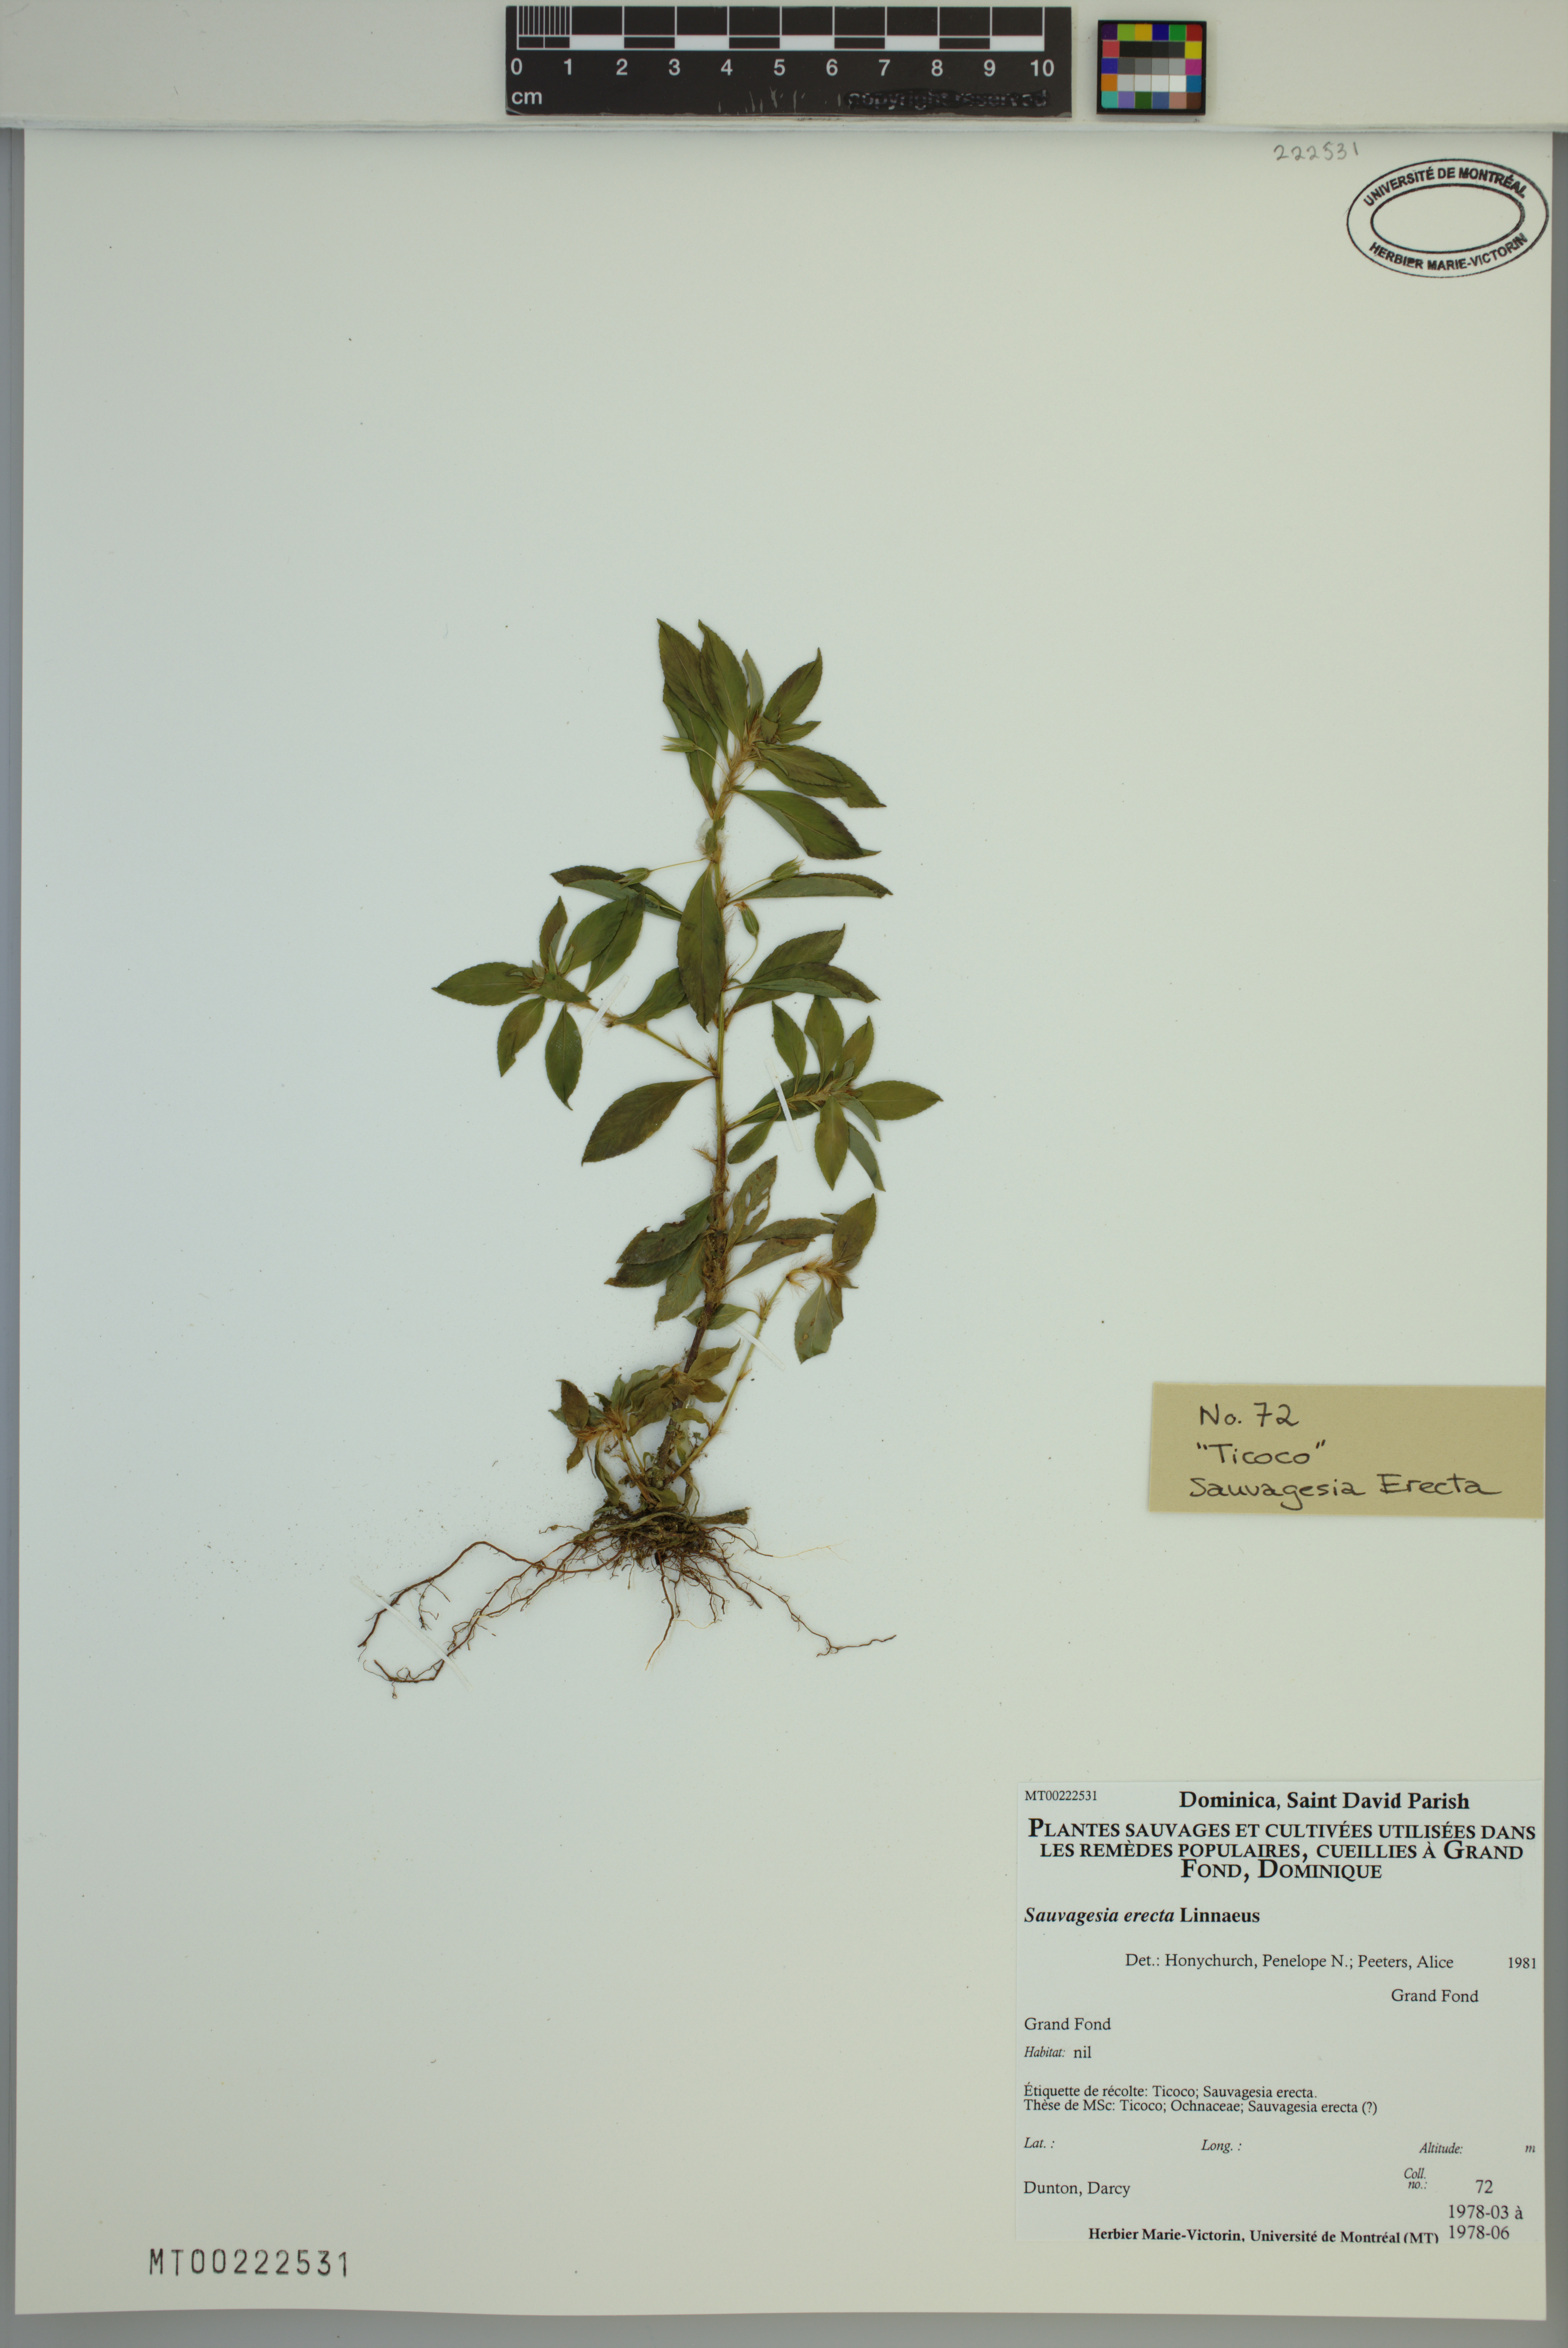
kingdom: Plantae
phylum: Tracheophyta
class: Magnoliopsida
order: Malpighiales
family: Ochnaceae
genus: Sauvagesia
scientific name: Sauvagesia erecta
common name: Creole tea
